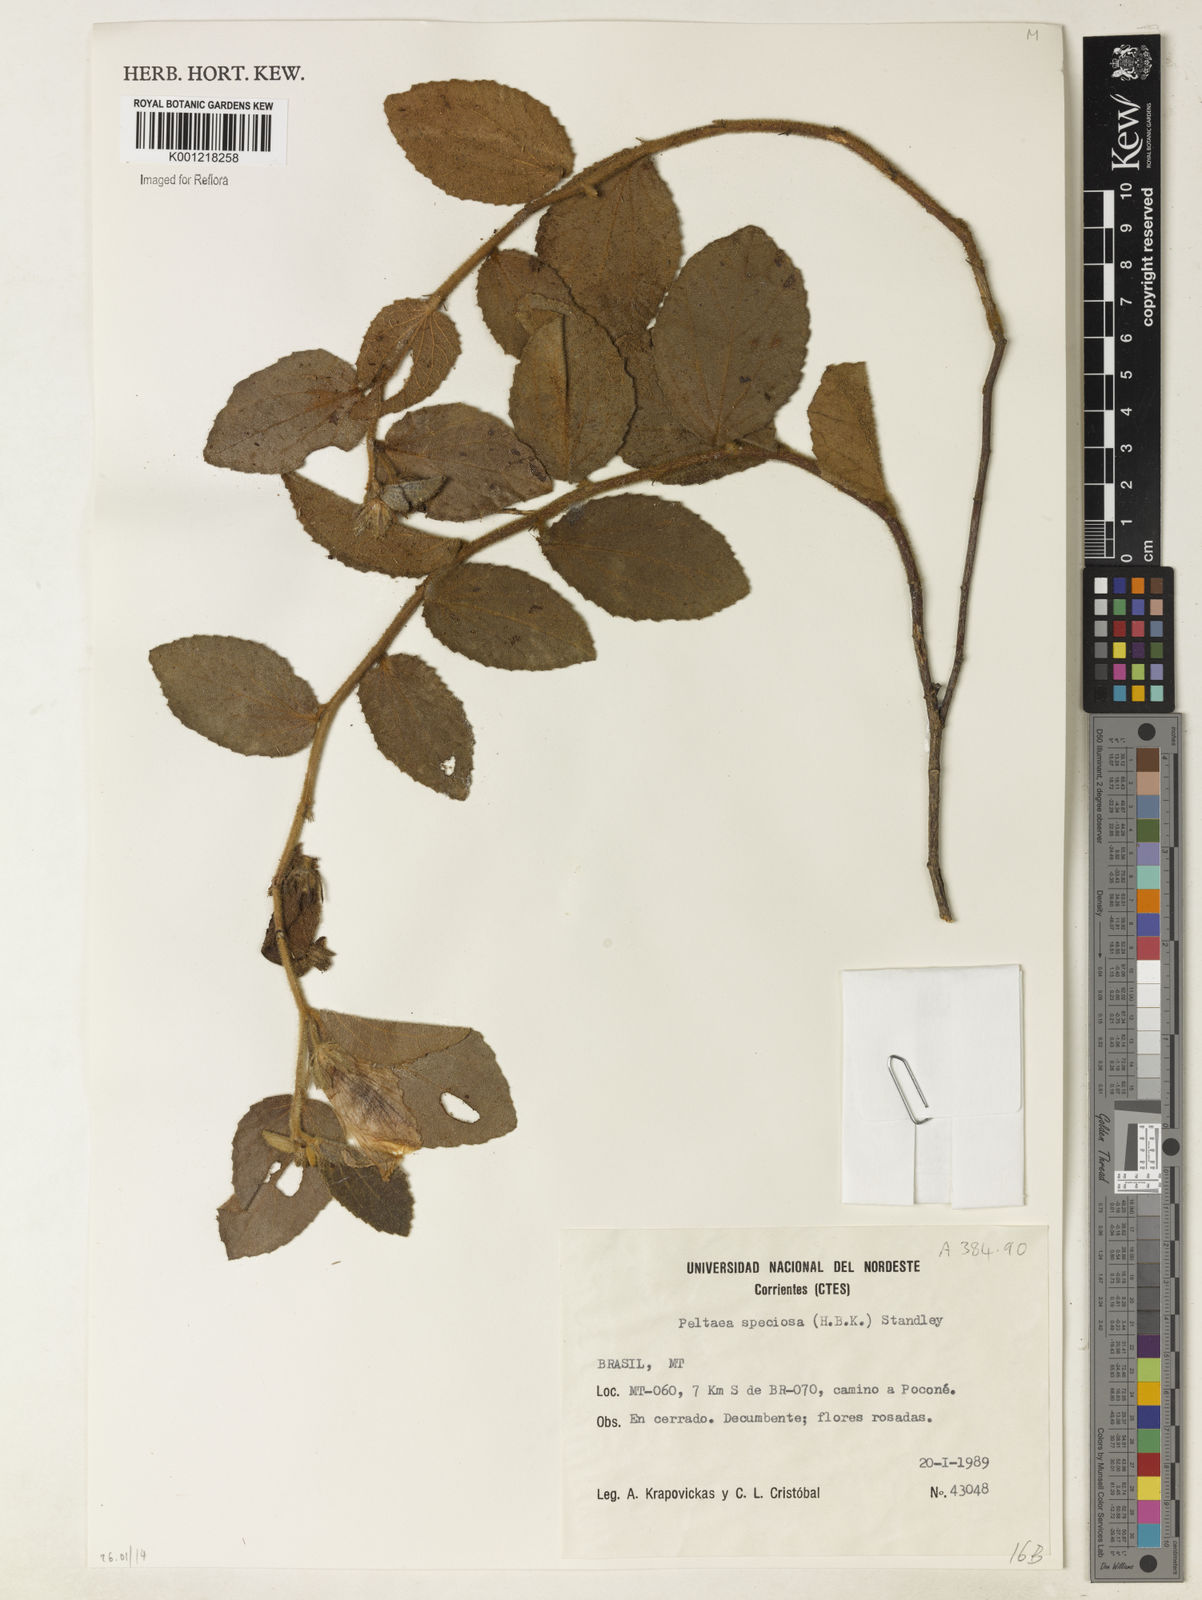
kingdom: Plantae
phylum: Tracheophyta
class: Magnoliopsida
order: Malvales
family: Malvaceae
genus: Peltaea
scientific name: Peltaea speciosa
